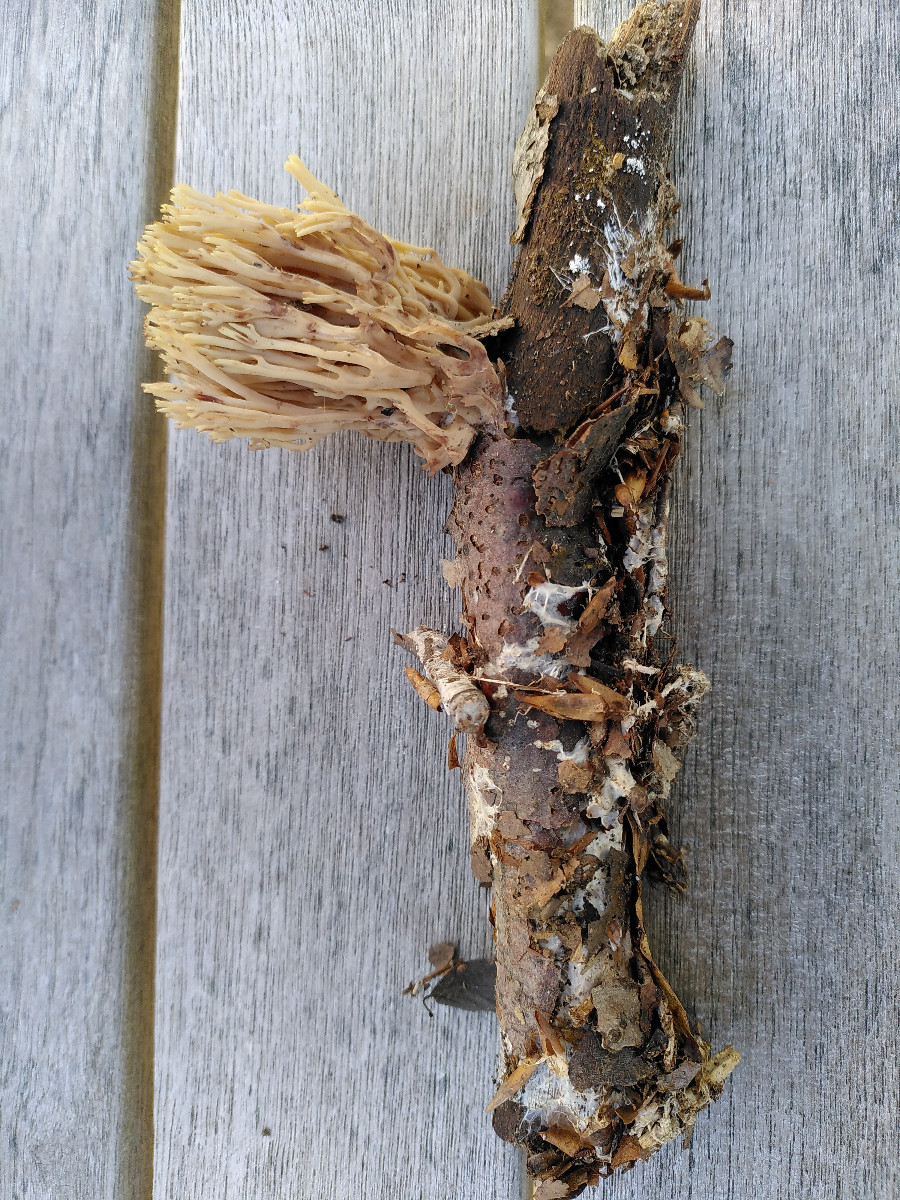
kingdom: Fungi
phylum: Basidiomycota
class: Agaricomycetes
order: Gomphales
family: Gomphaceae
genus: Ramaria
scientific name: Ramaria stricta
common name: rank koralsvamp
